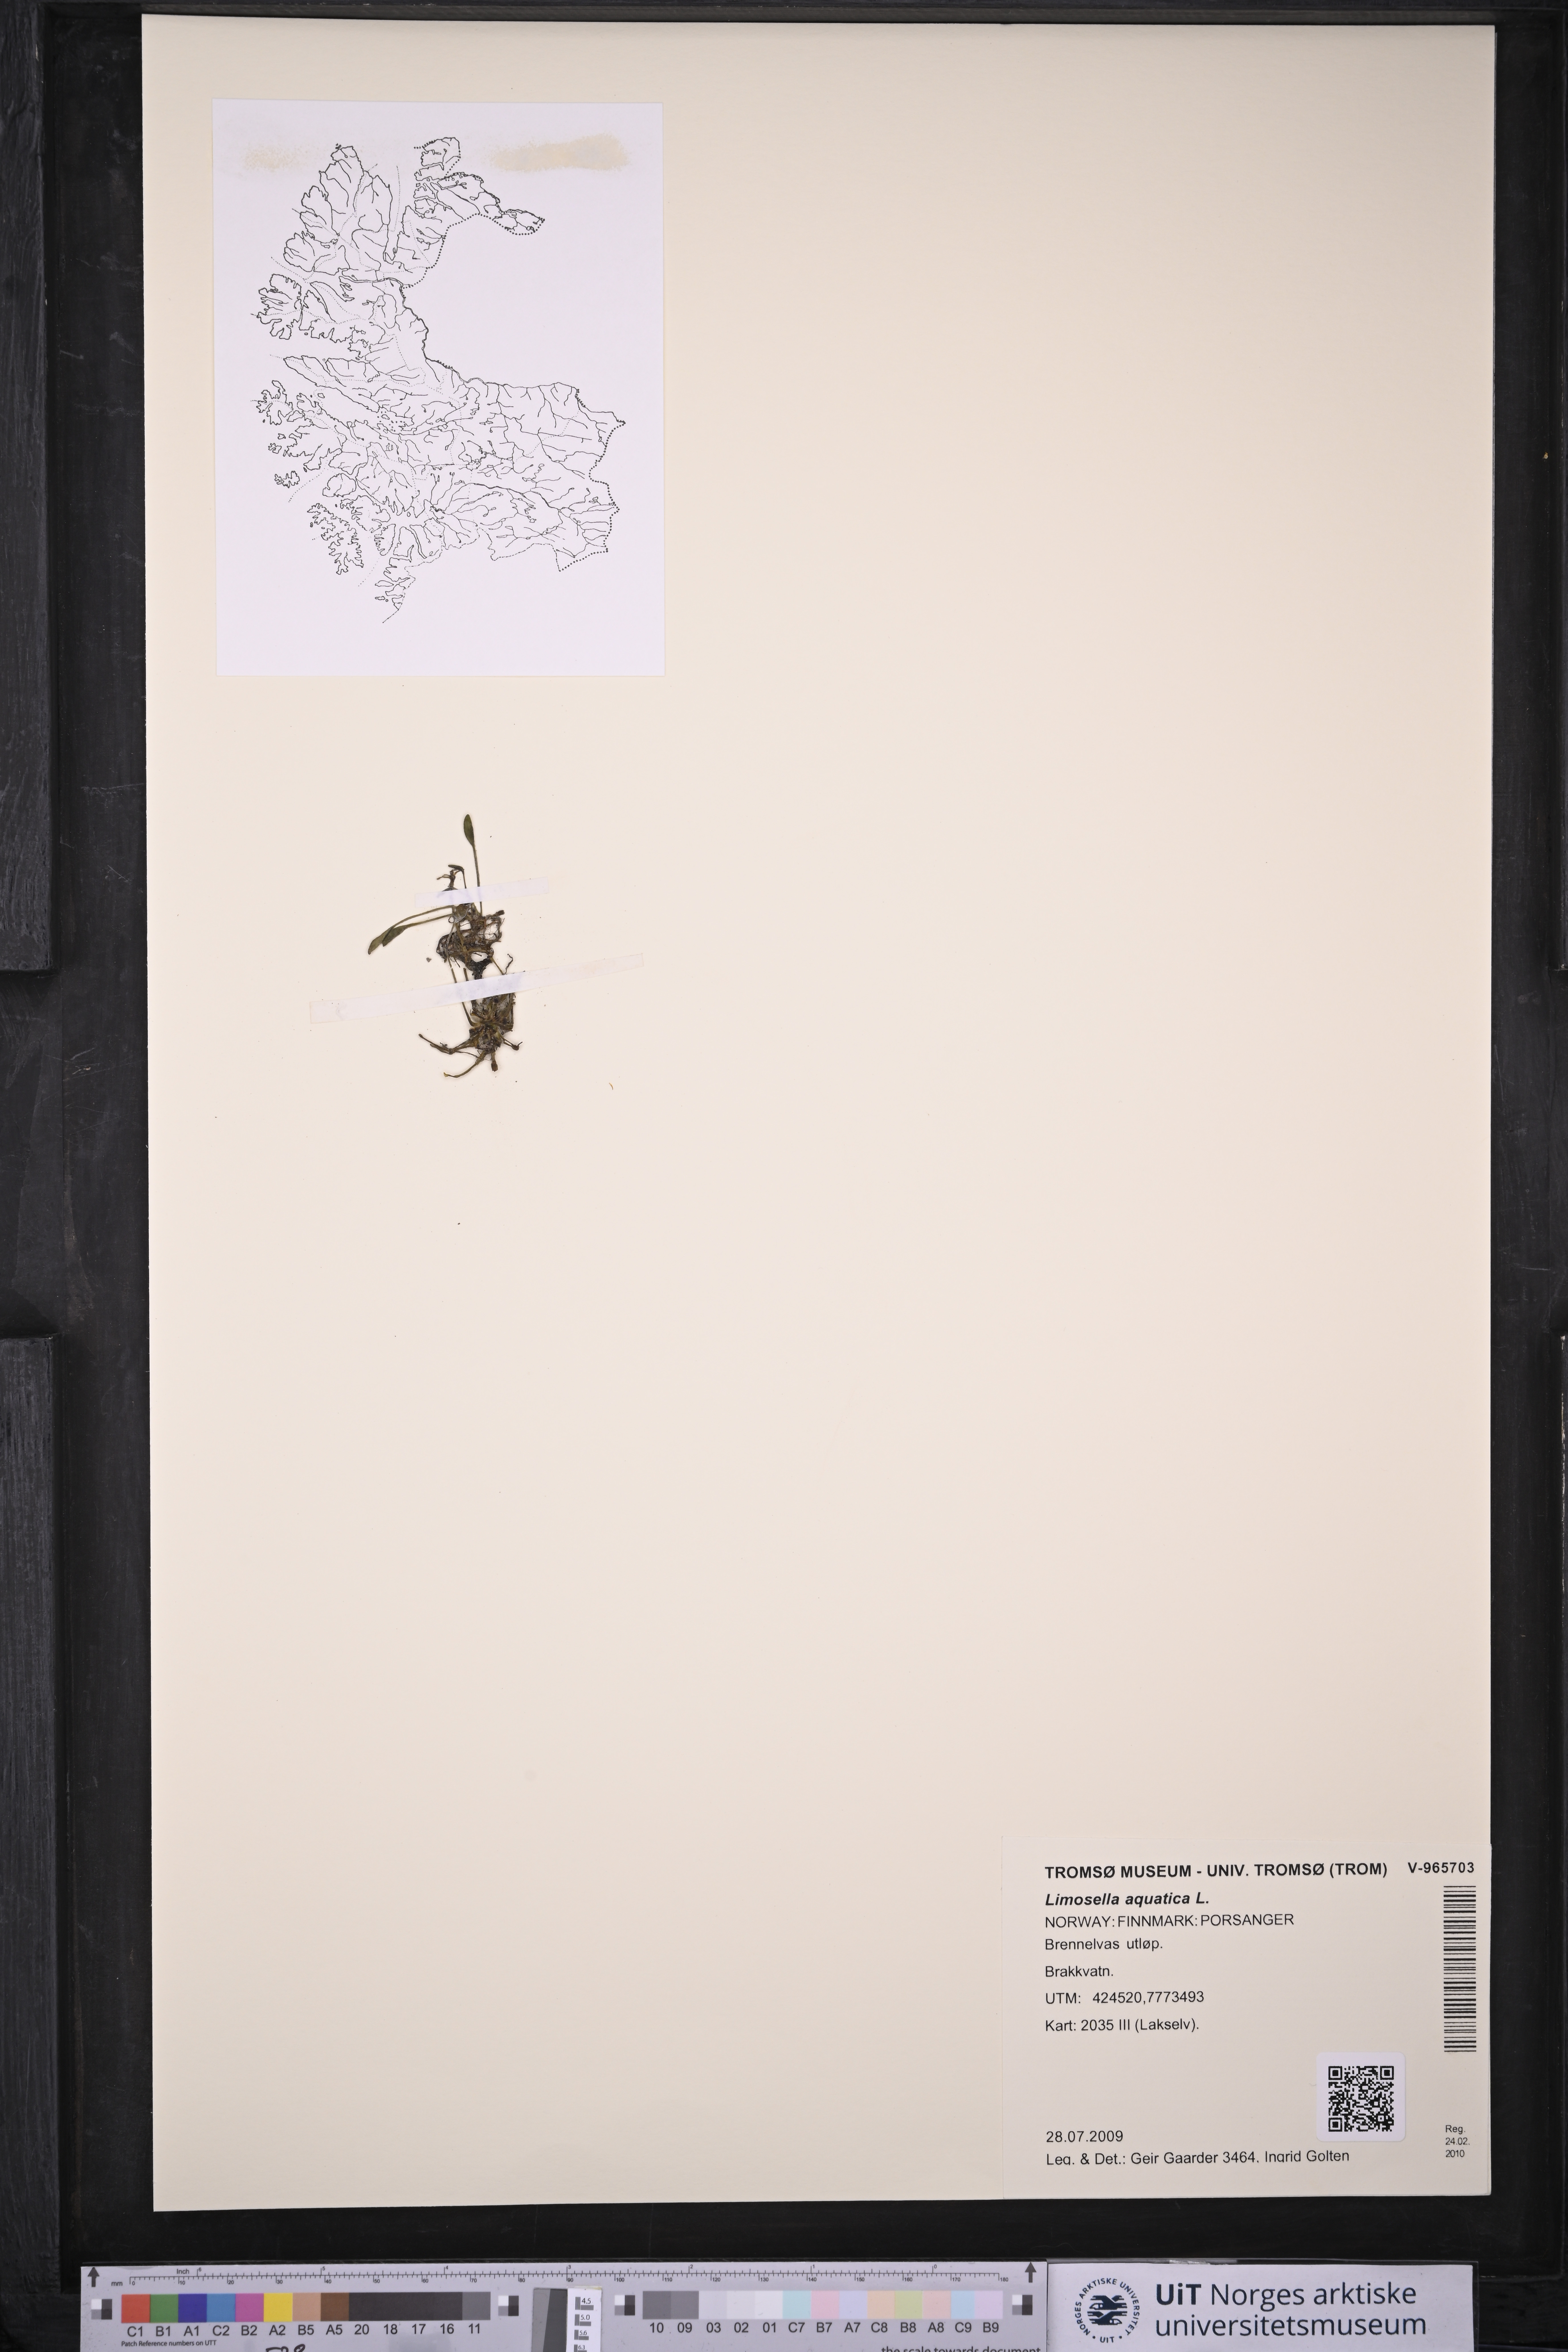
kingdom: Plantae
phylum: Tracheophyta
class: Magnoliopsida
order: Lamiales
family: Scrophulariaceae
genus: Limosella
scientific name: Limosella aquatica
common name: Mudwort
